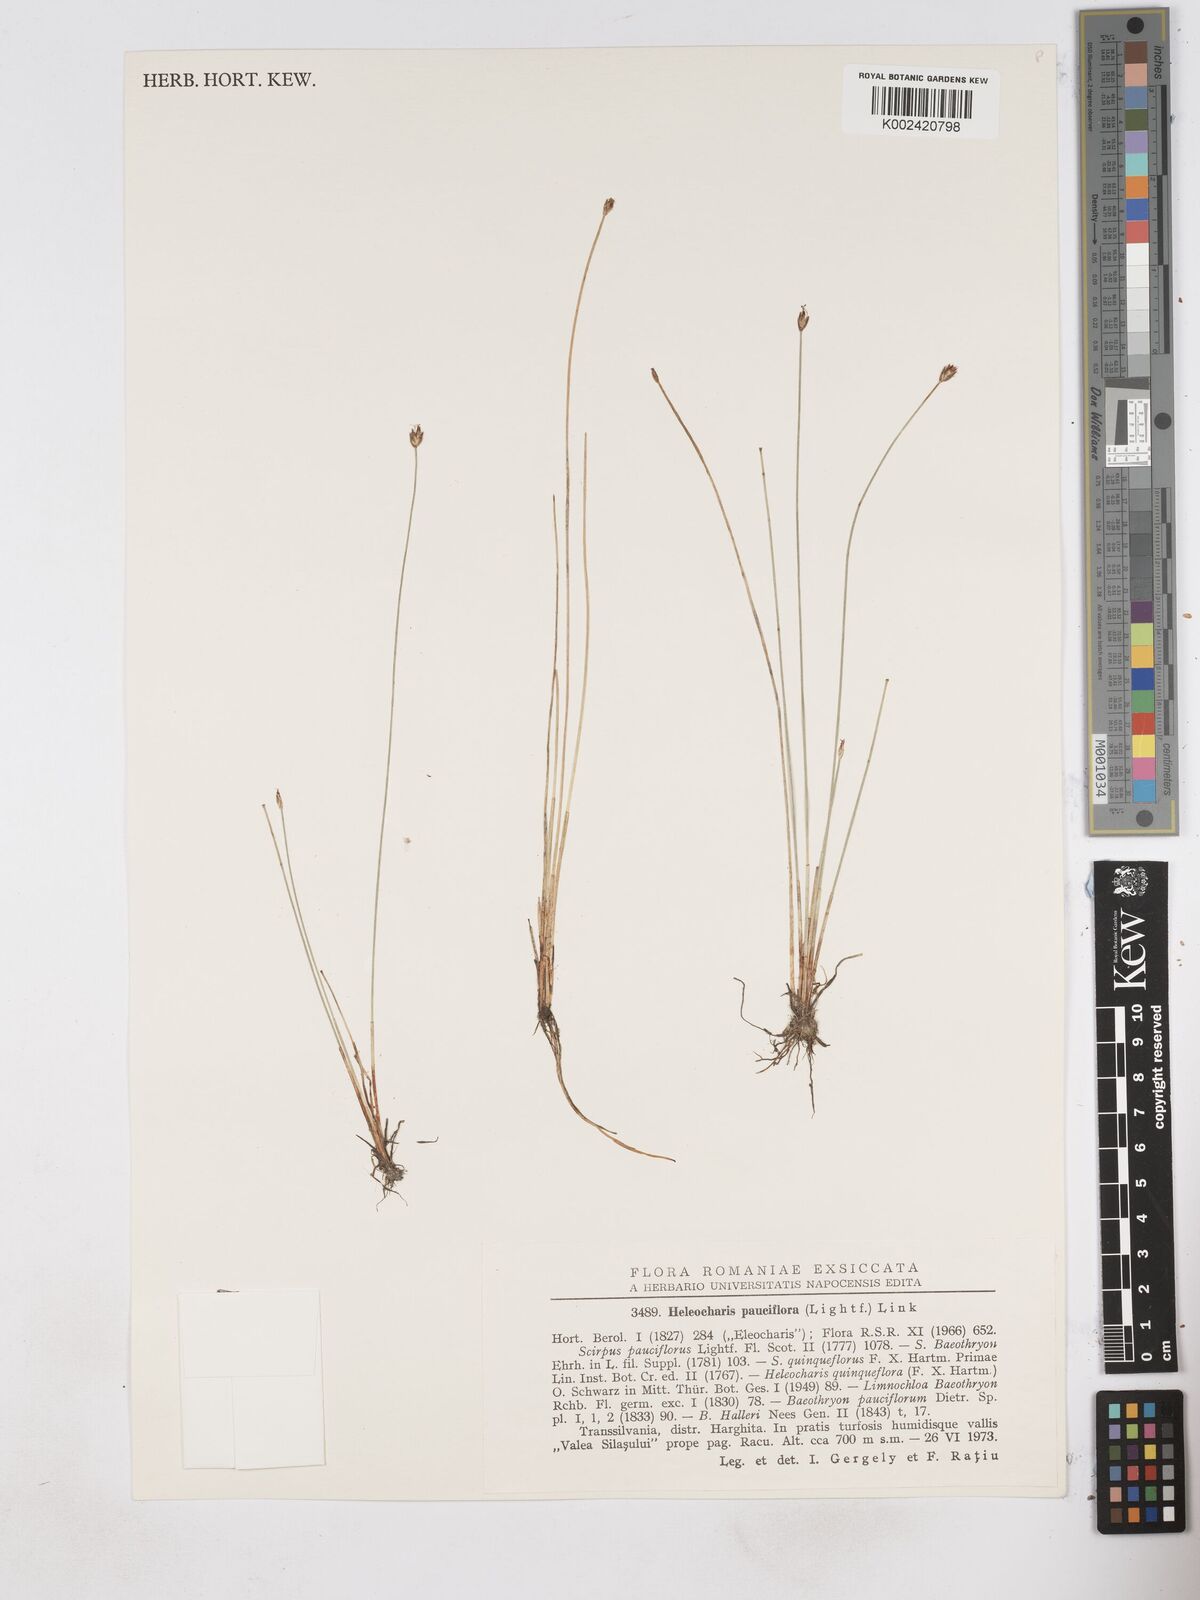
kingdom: Plantae
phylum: Tracheophyta
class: Liliopsida
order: Poales
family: Cyperaceae
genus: Eleocharis
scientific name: Eleocharis quinqueflora
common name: Few-flowered spike-rush
